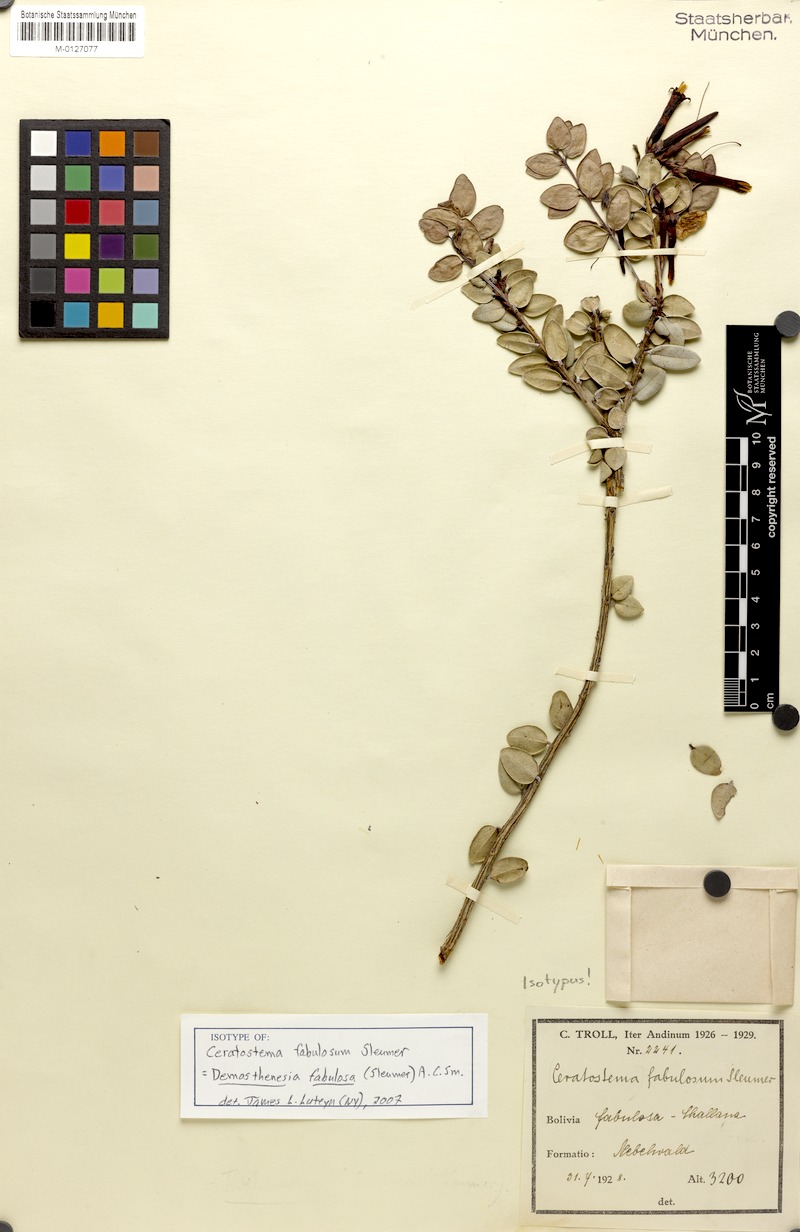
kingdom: Plantae
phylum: Tracheophyta
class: Magnoliopsida
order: Ericales
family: Ericaceae
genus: Demosthenesia
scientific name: Demosthenesia fabulosa
